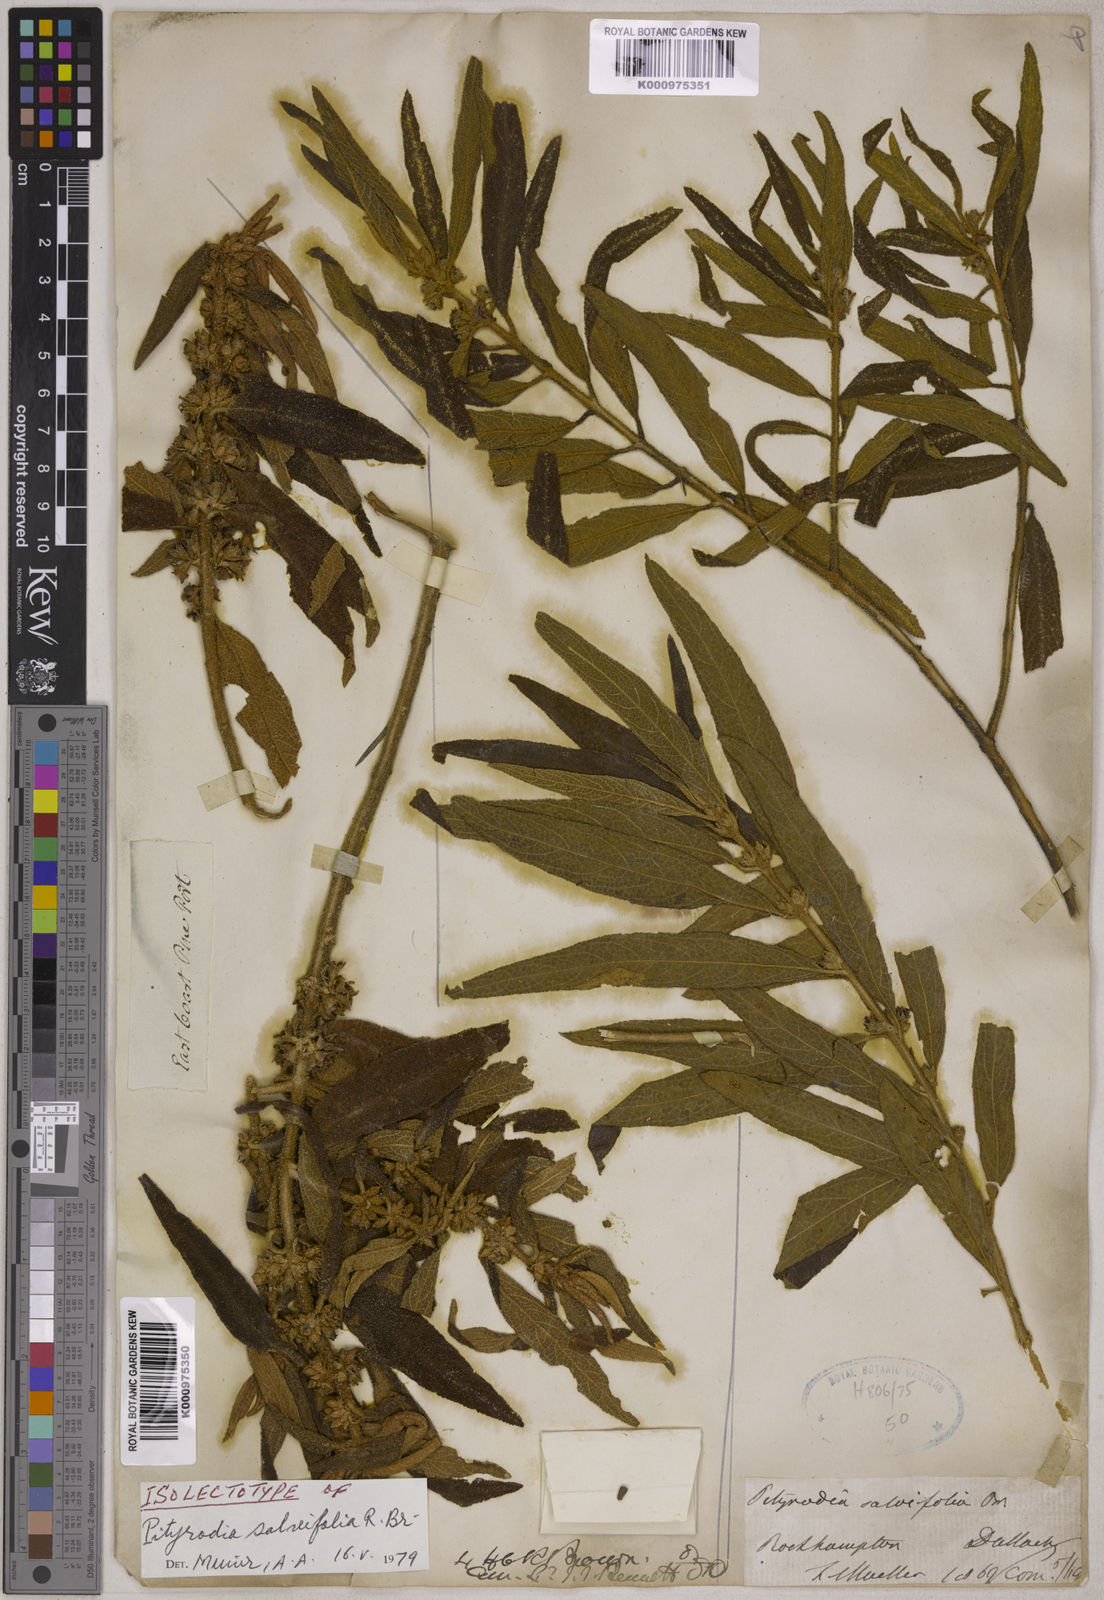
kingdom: Plantae
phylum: Tracheophyta
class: Magnoliopsida
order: Lamiales
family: Lamiaceae
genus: Pityrodia
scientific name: Pityrodia salviifolia
